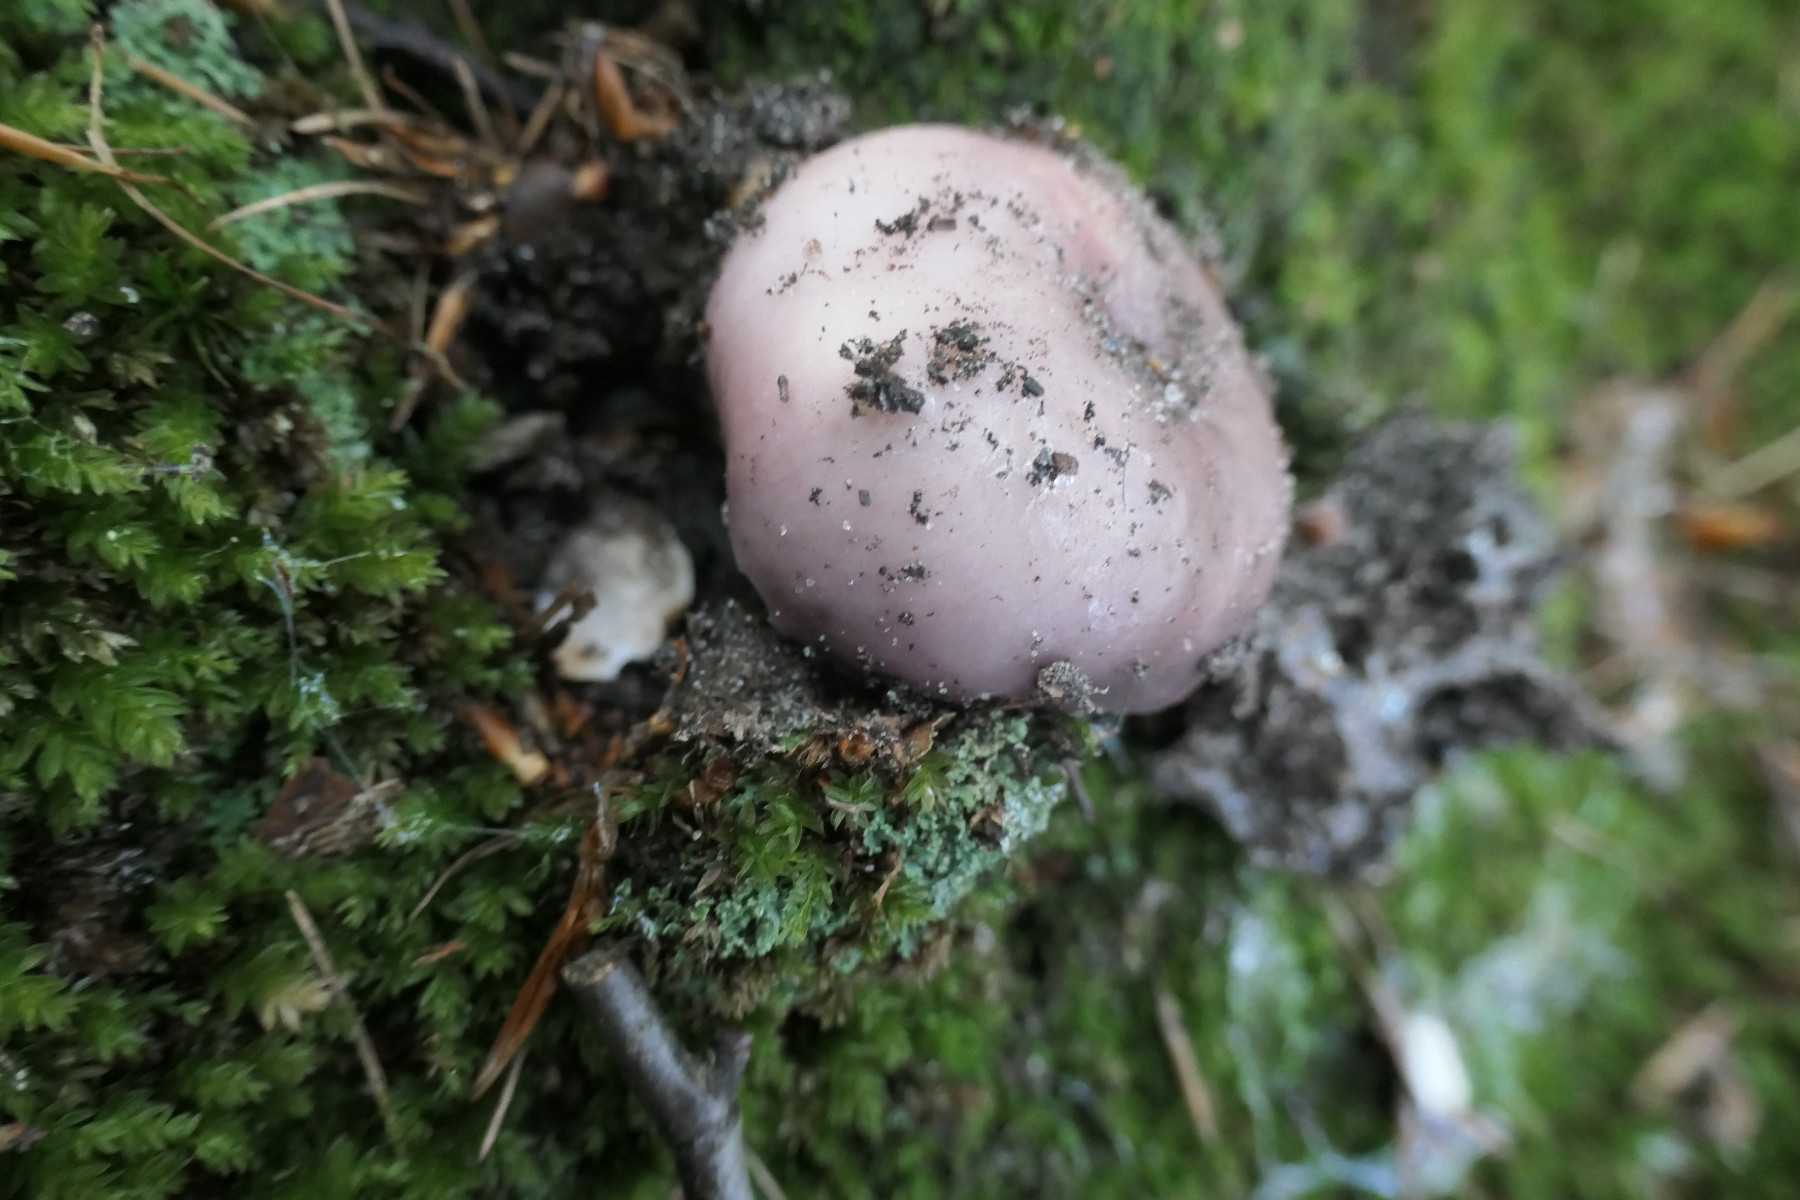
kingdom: Fungi
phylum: Basidiomycota
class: Agaricomycetes
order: Russulales
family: Russulaceae
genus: Russula
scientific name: Russula cyanoxantha
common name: broget skørhat
